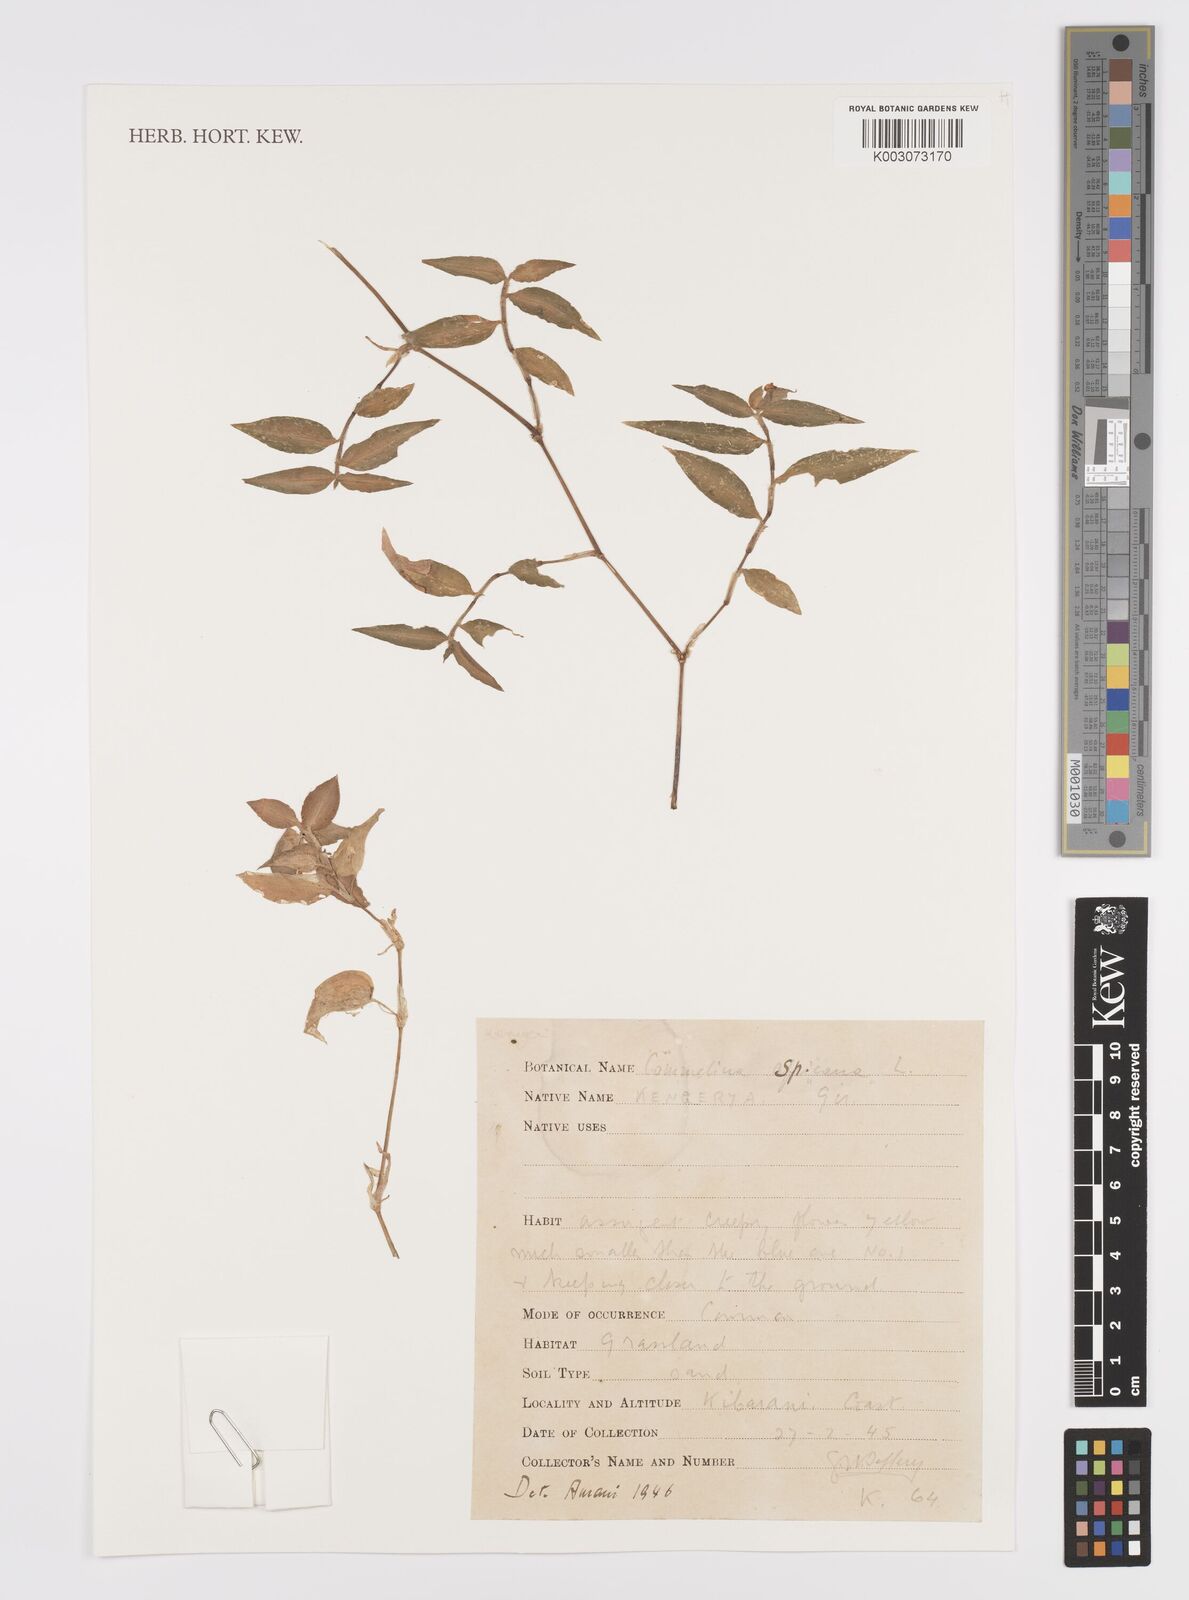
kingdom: Plantae
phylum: Tracheophyta
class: Liliopsida
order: Commelinales
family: Commelinaceae
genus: Commelina
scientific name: Commelina africana
